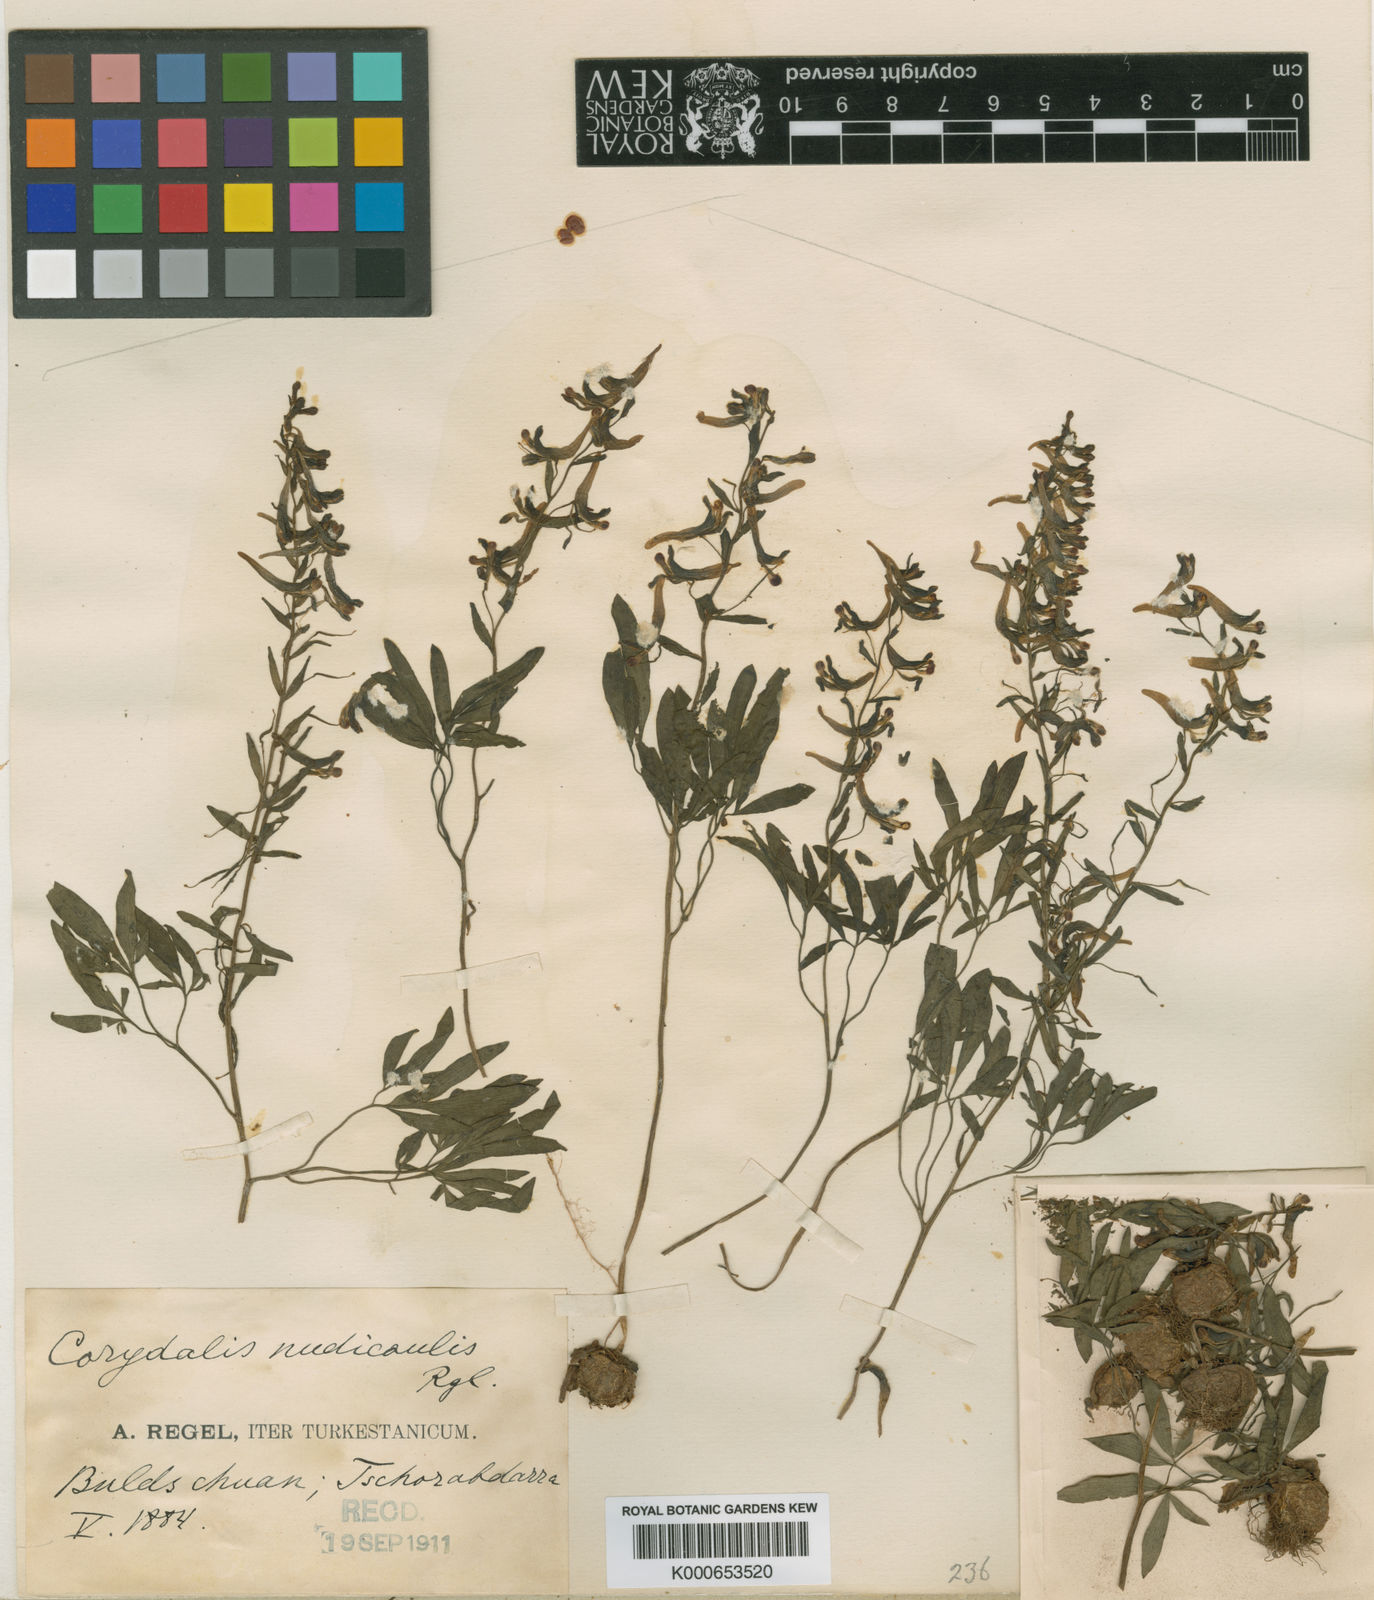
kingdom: Plantae
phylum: Tracheophyta
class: Magnoliopsida
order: Ranunculales
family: Papaveraceae
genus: Corydalis
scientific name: Corydalis nudicaulis
